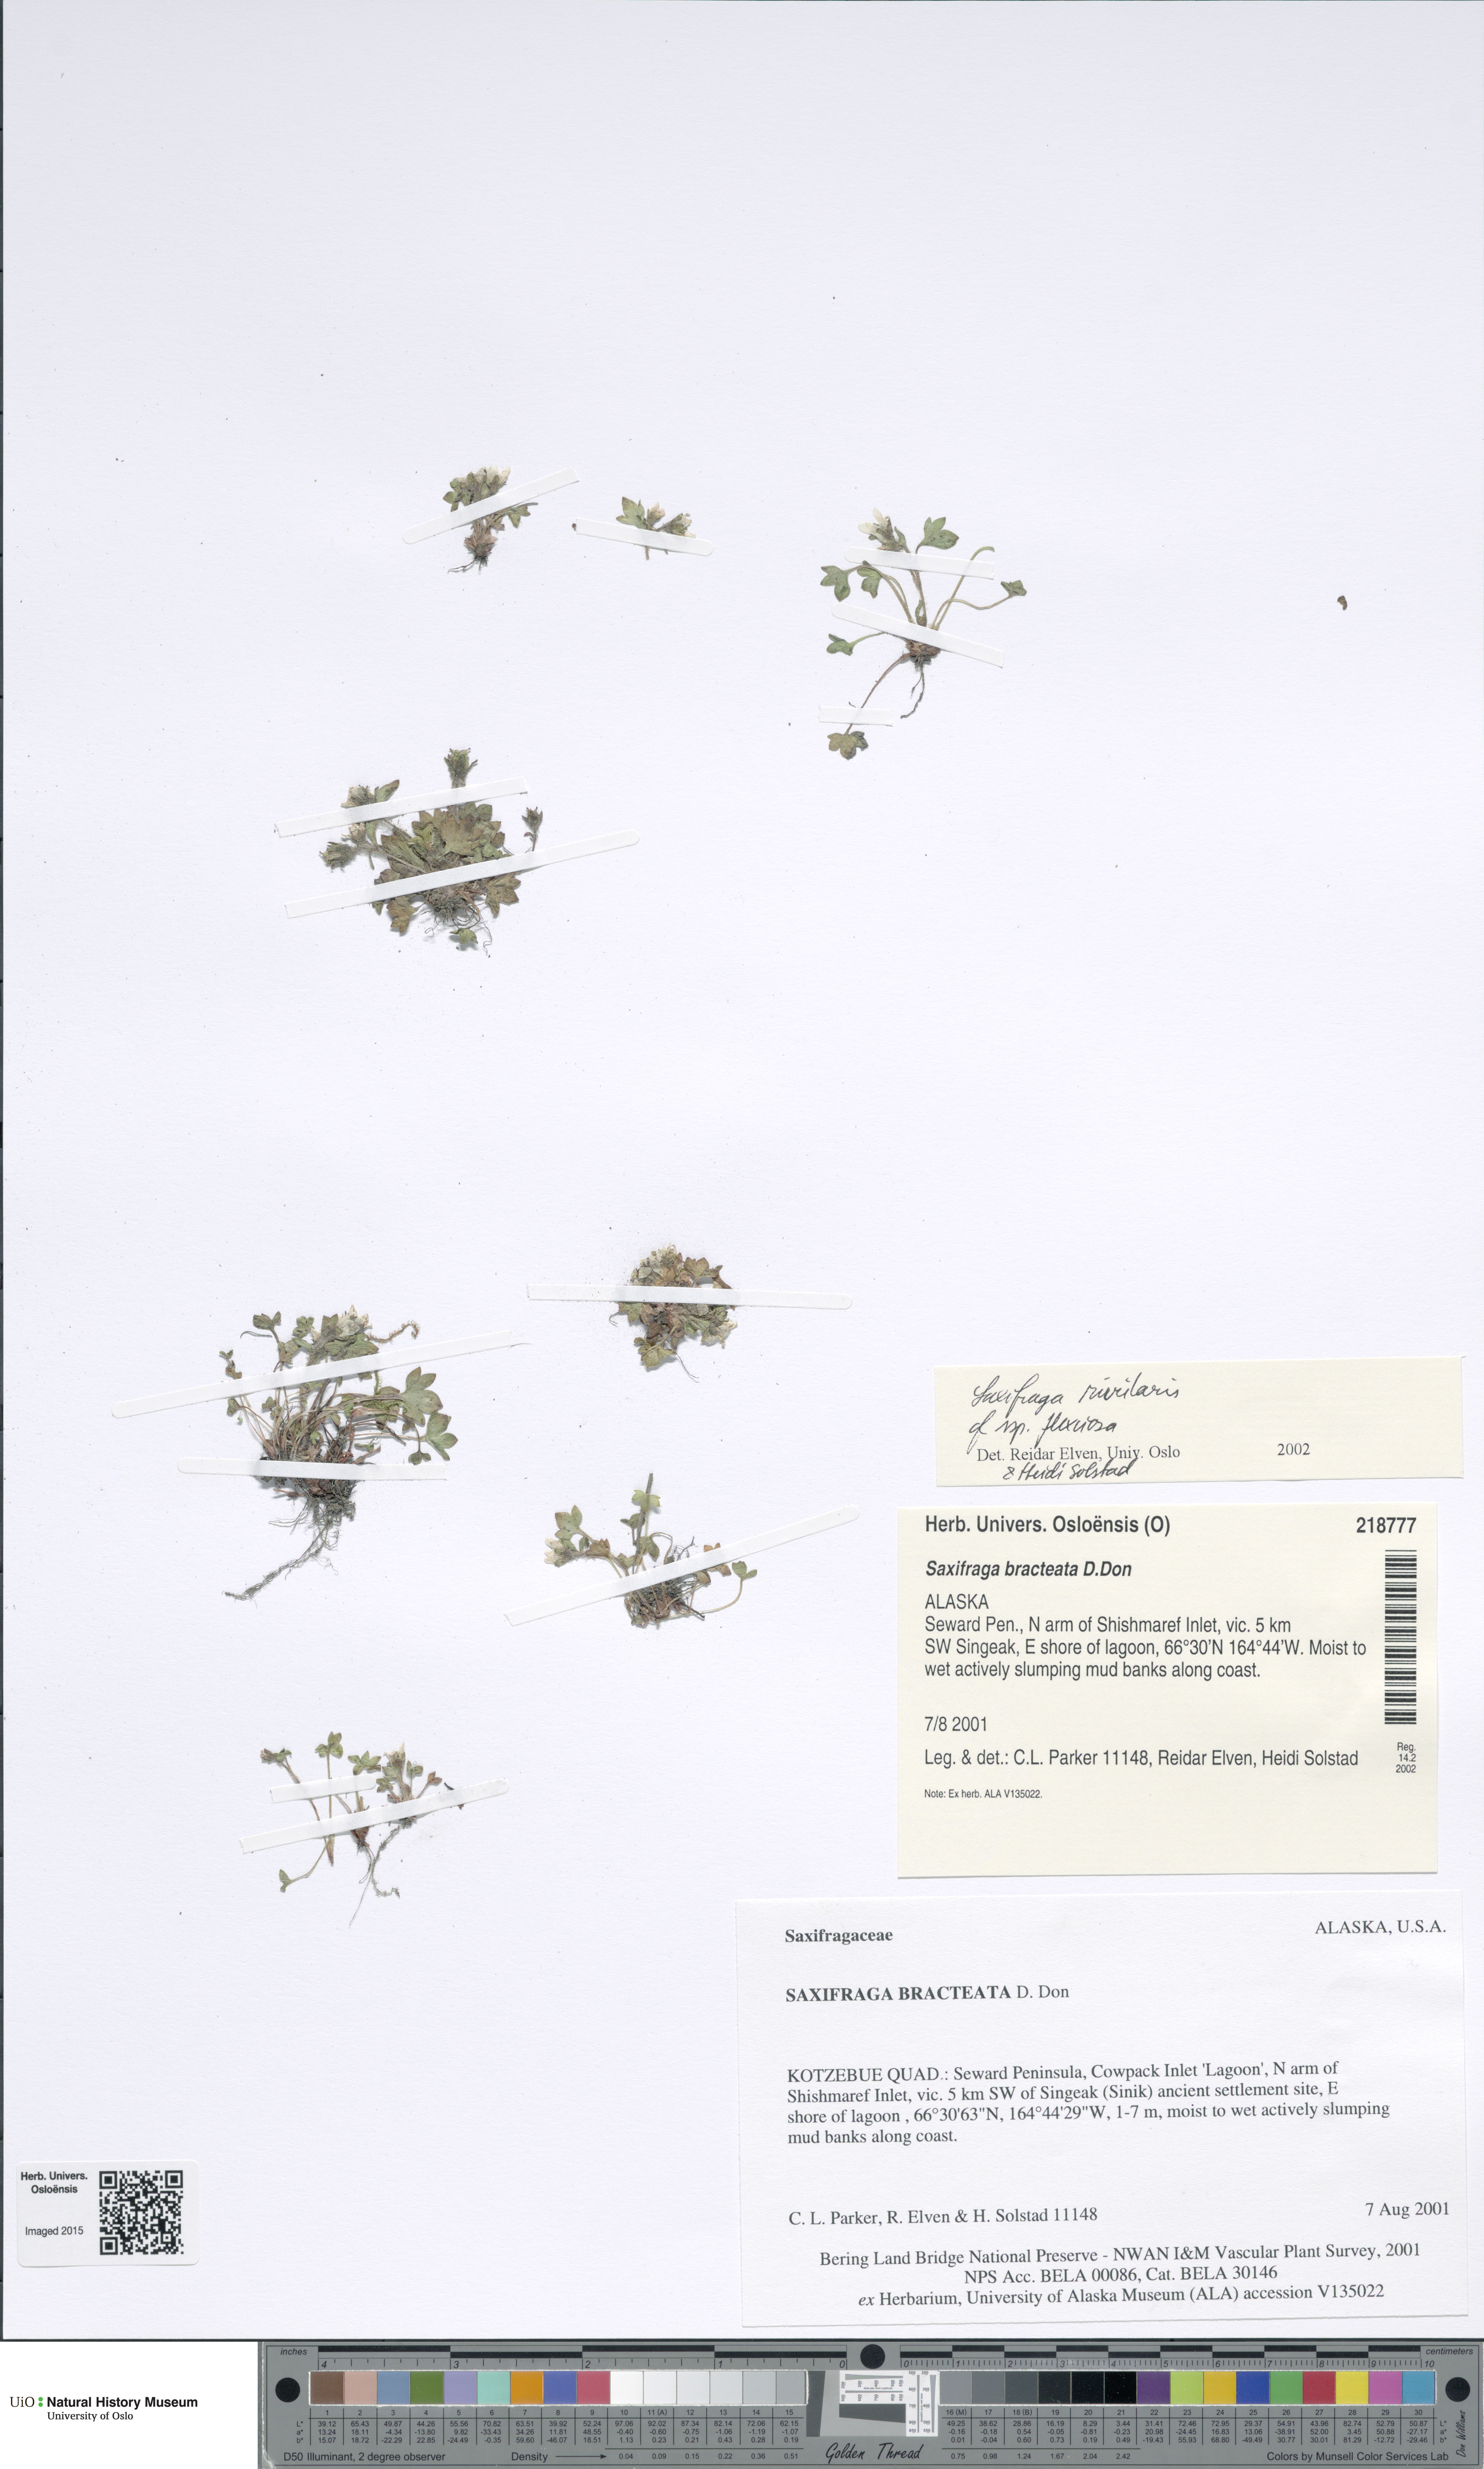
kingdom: Plantae
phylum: Tracheophyta
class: Magnoliopsida
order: Saxifragales
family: Saxifragaceae
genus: Saxifraga
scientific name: Saxifraga hyperborea
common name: Arctic saxifrage
